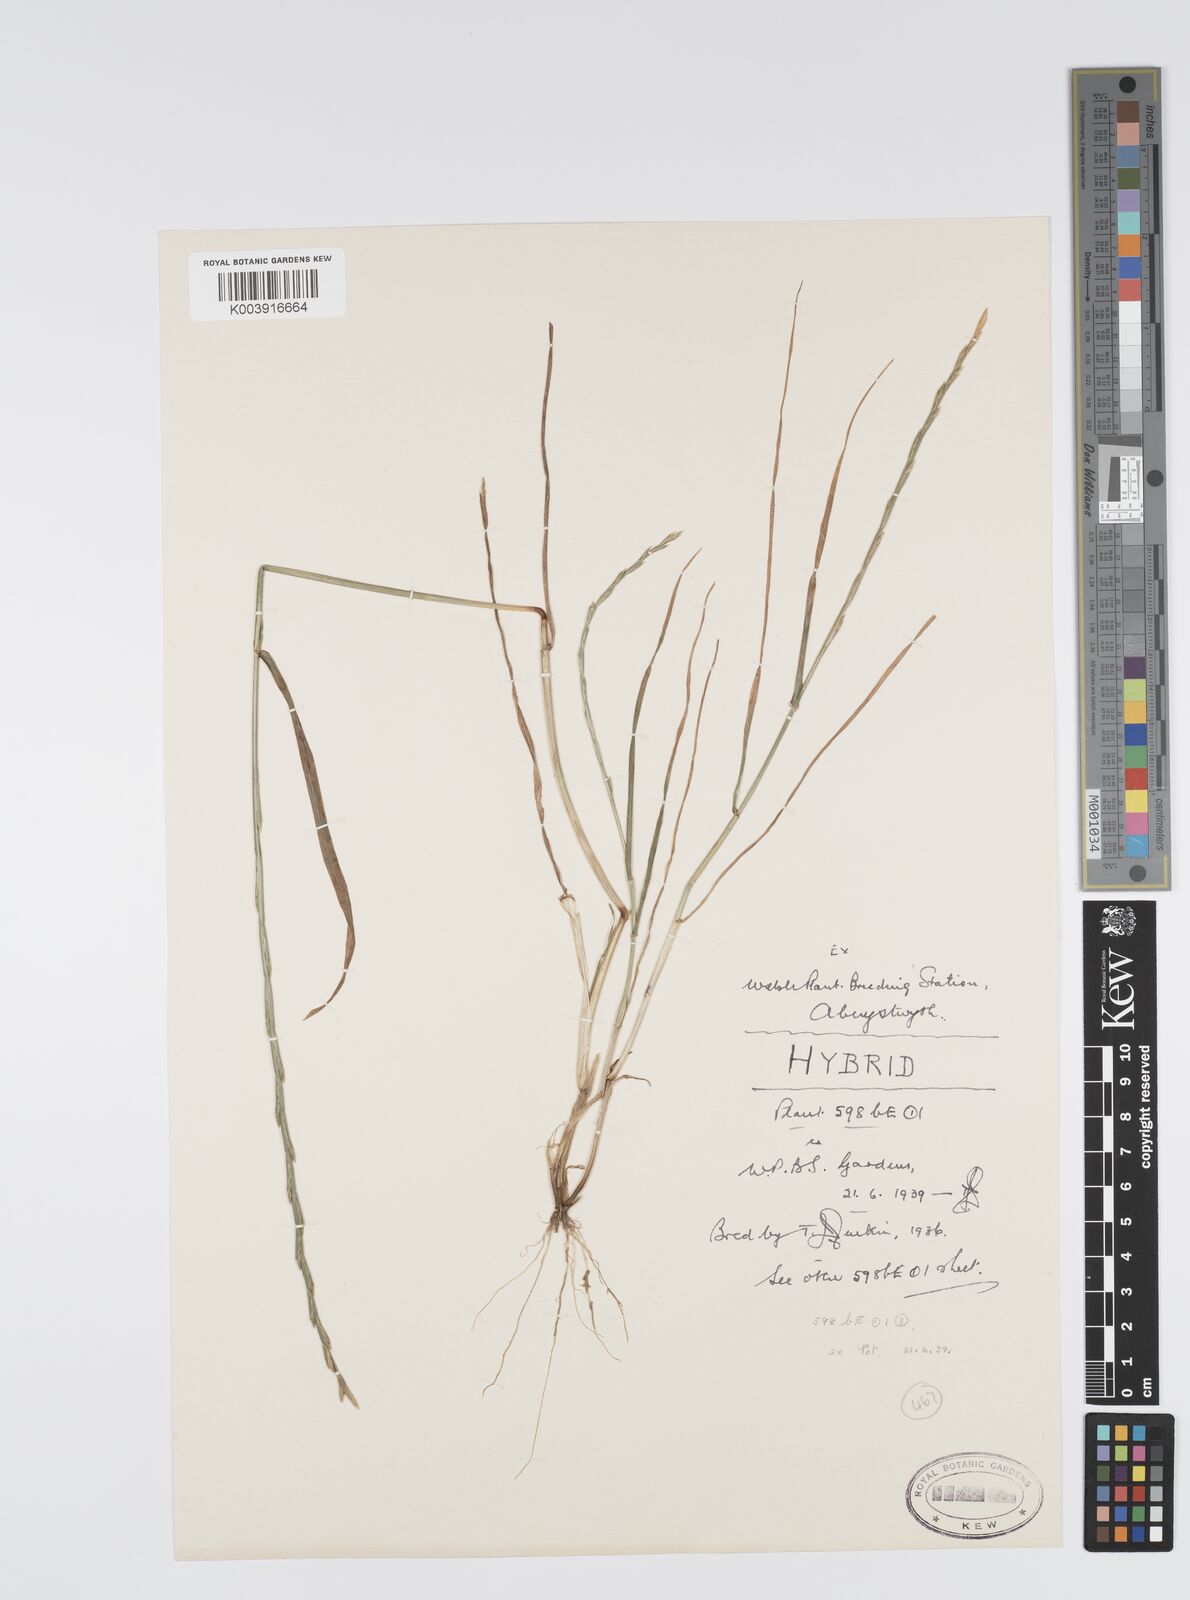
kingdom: Plantae
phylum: Tracheophyta
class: Liliopsida
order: Poales
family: Poaceae
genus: Lolium
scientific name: Lolium perenne
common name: Perennial ryegrass
